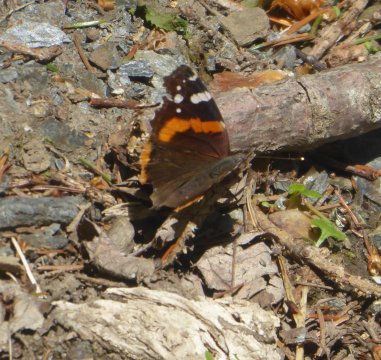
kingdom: Animalia
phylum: Arthropoda
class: Insecta
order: Lepidoptera
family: Nymphalidae
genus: Vanessa
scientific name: Vanessa atalanta
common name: Red Admiral
